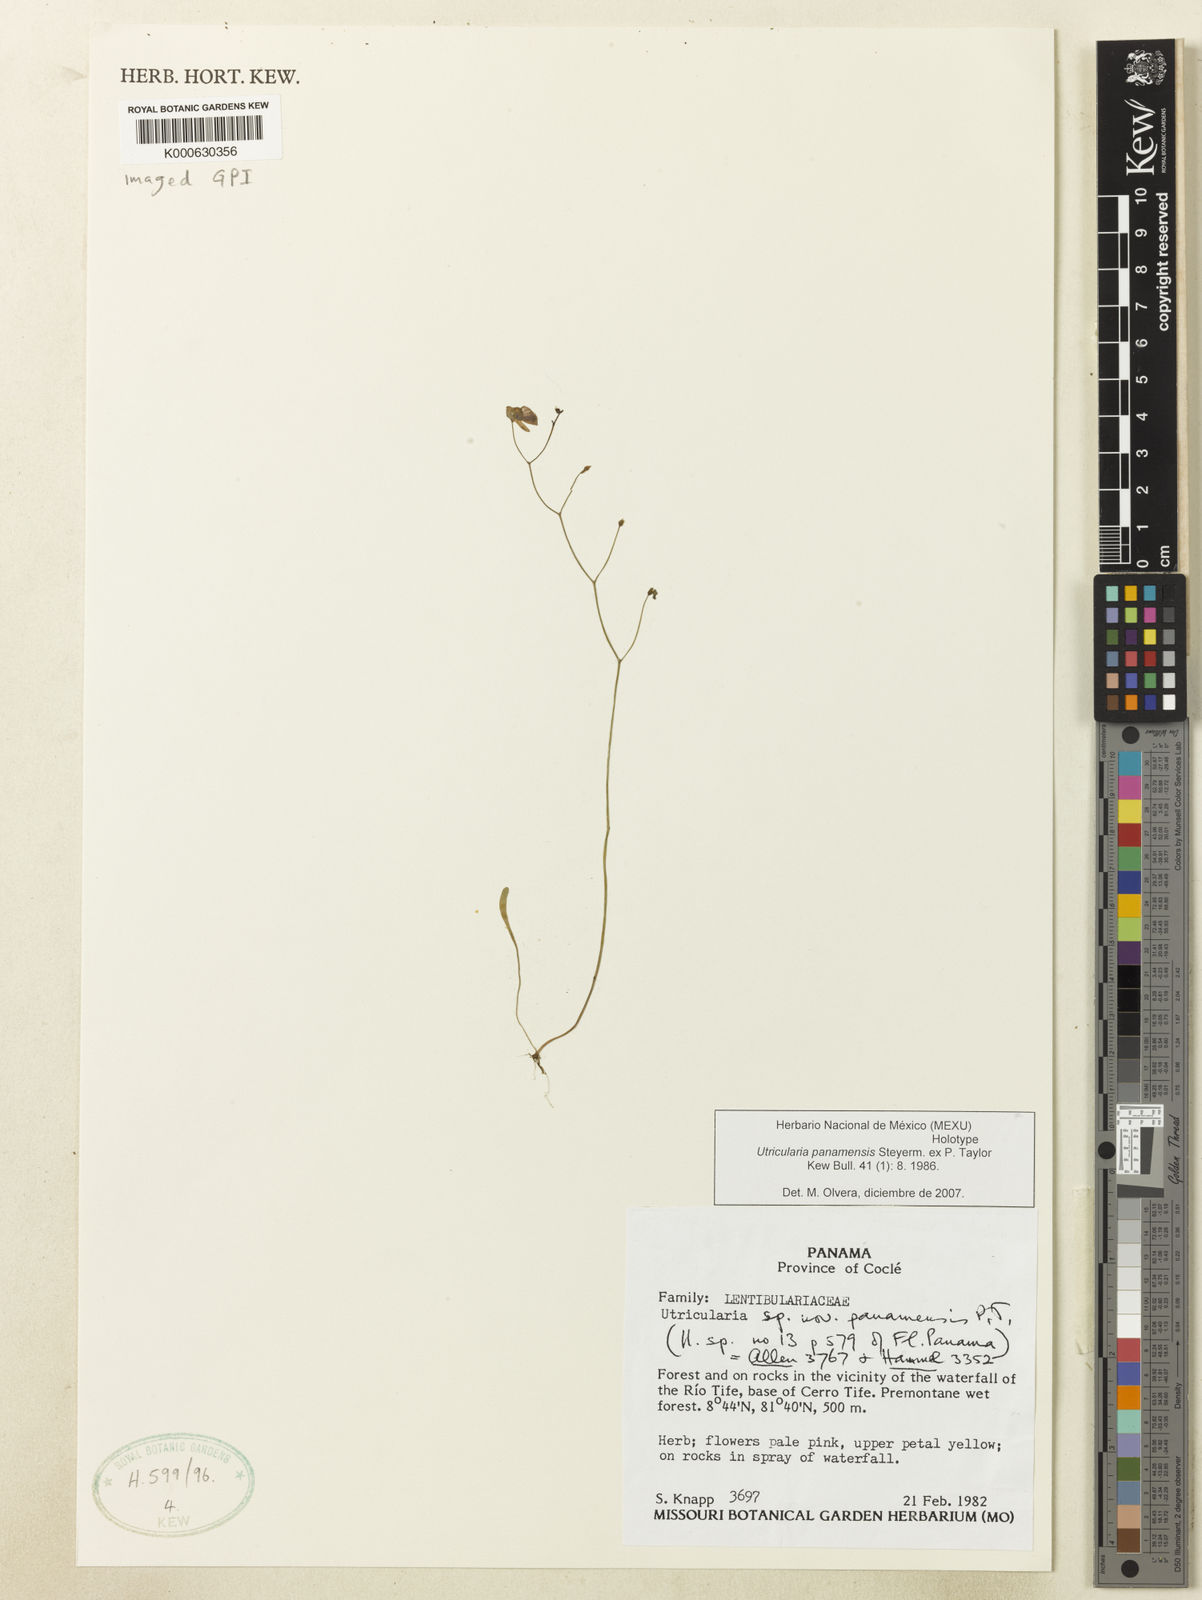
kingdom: Plantae
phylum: Tracheophyta
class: Magnoliopsida
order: Lamiales
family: Lentibulariaceae
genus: Utricularia
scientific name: Utricularia panamensis
